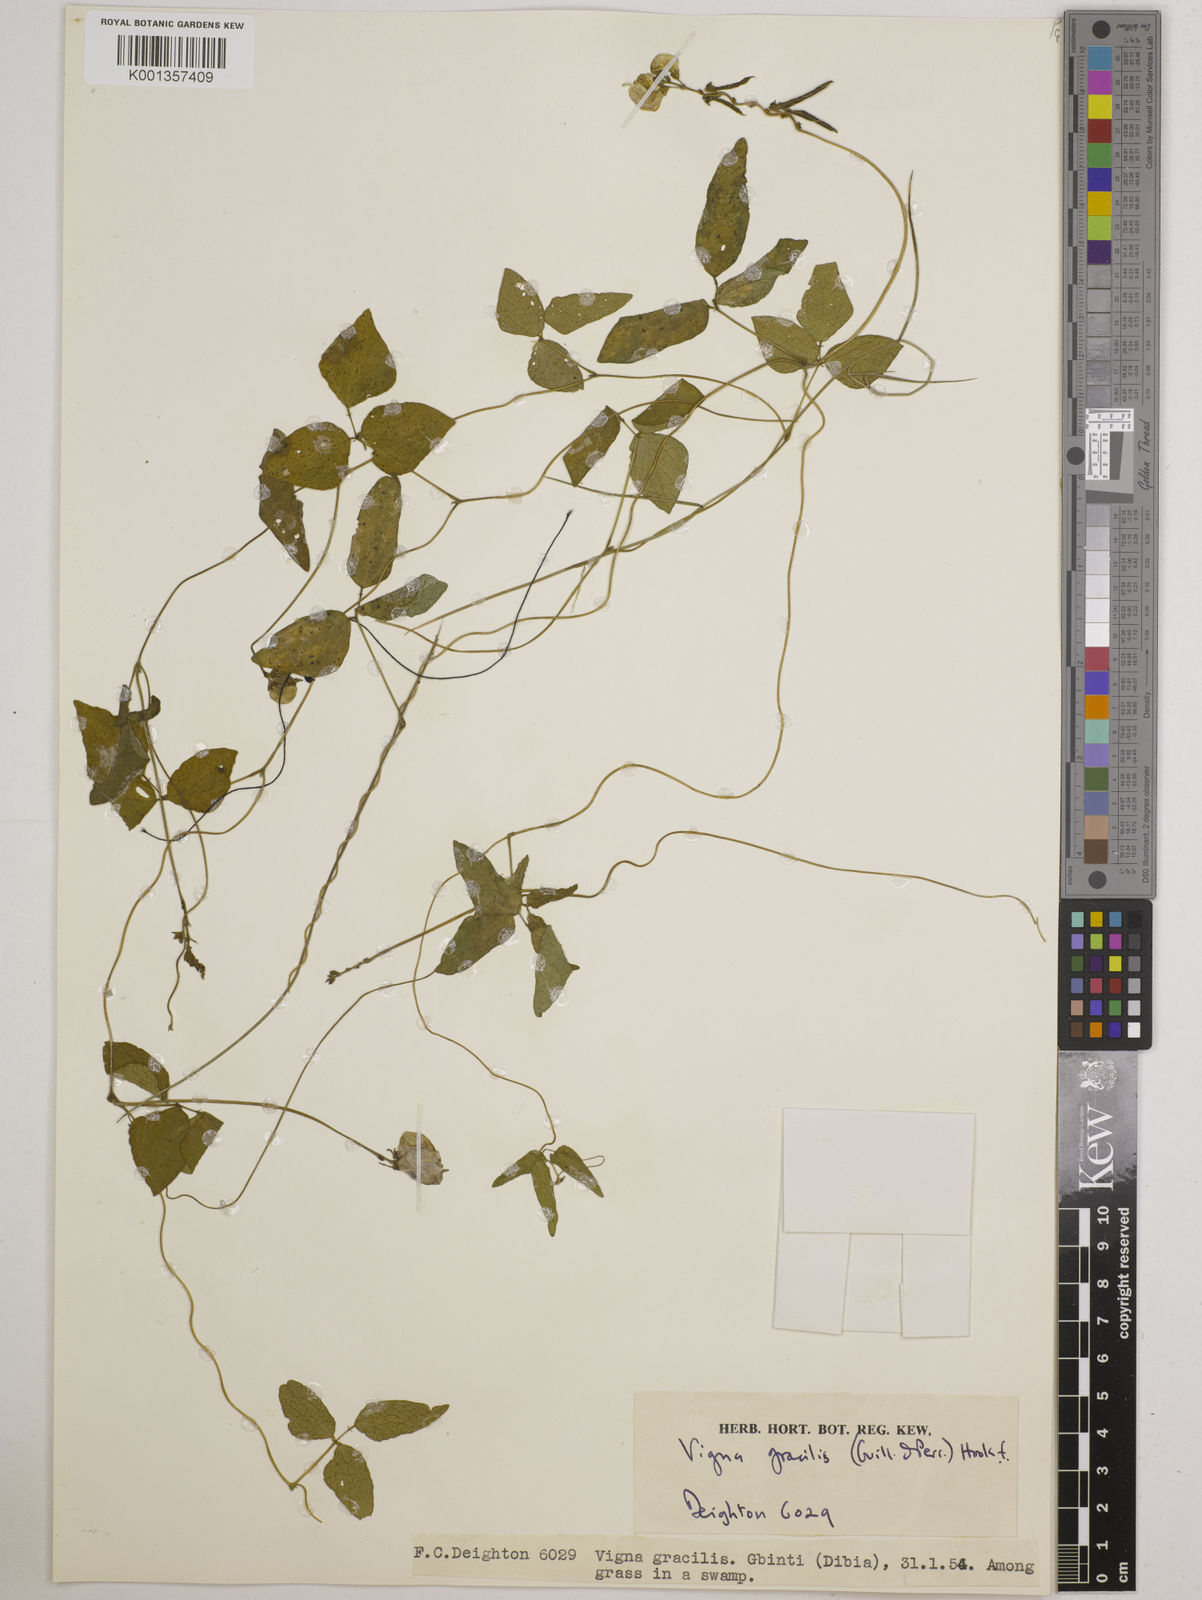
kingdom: Plantae
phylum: Tracheophyta
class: Magnoliopsida
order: Fabales
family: Fabaceae
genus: Vigna
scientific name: Vigna gracilis
